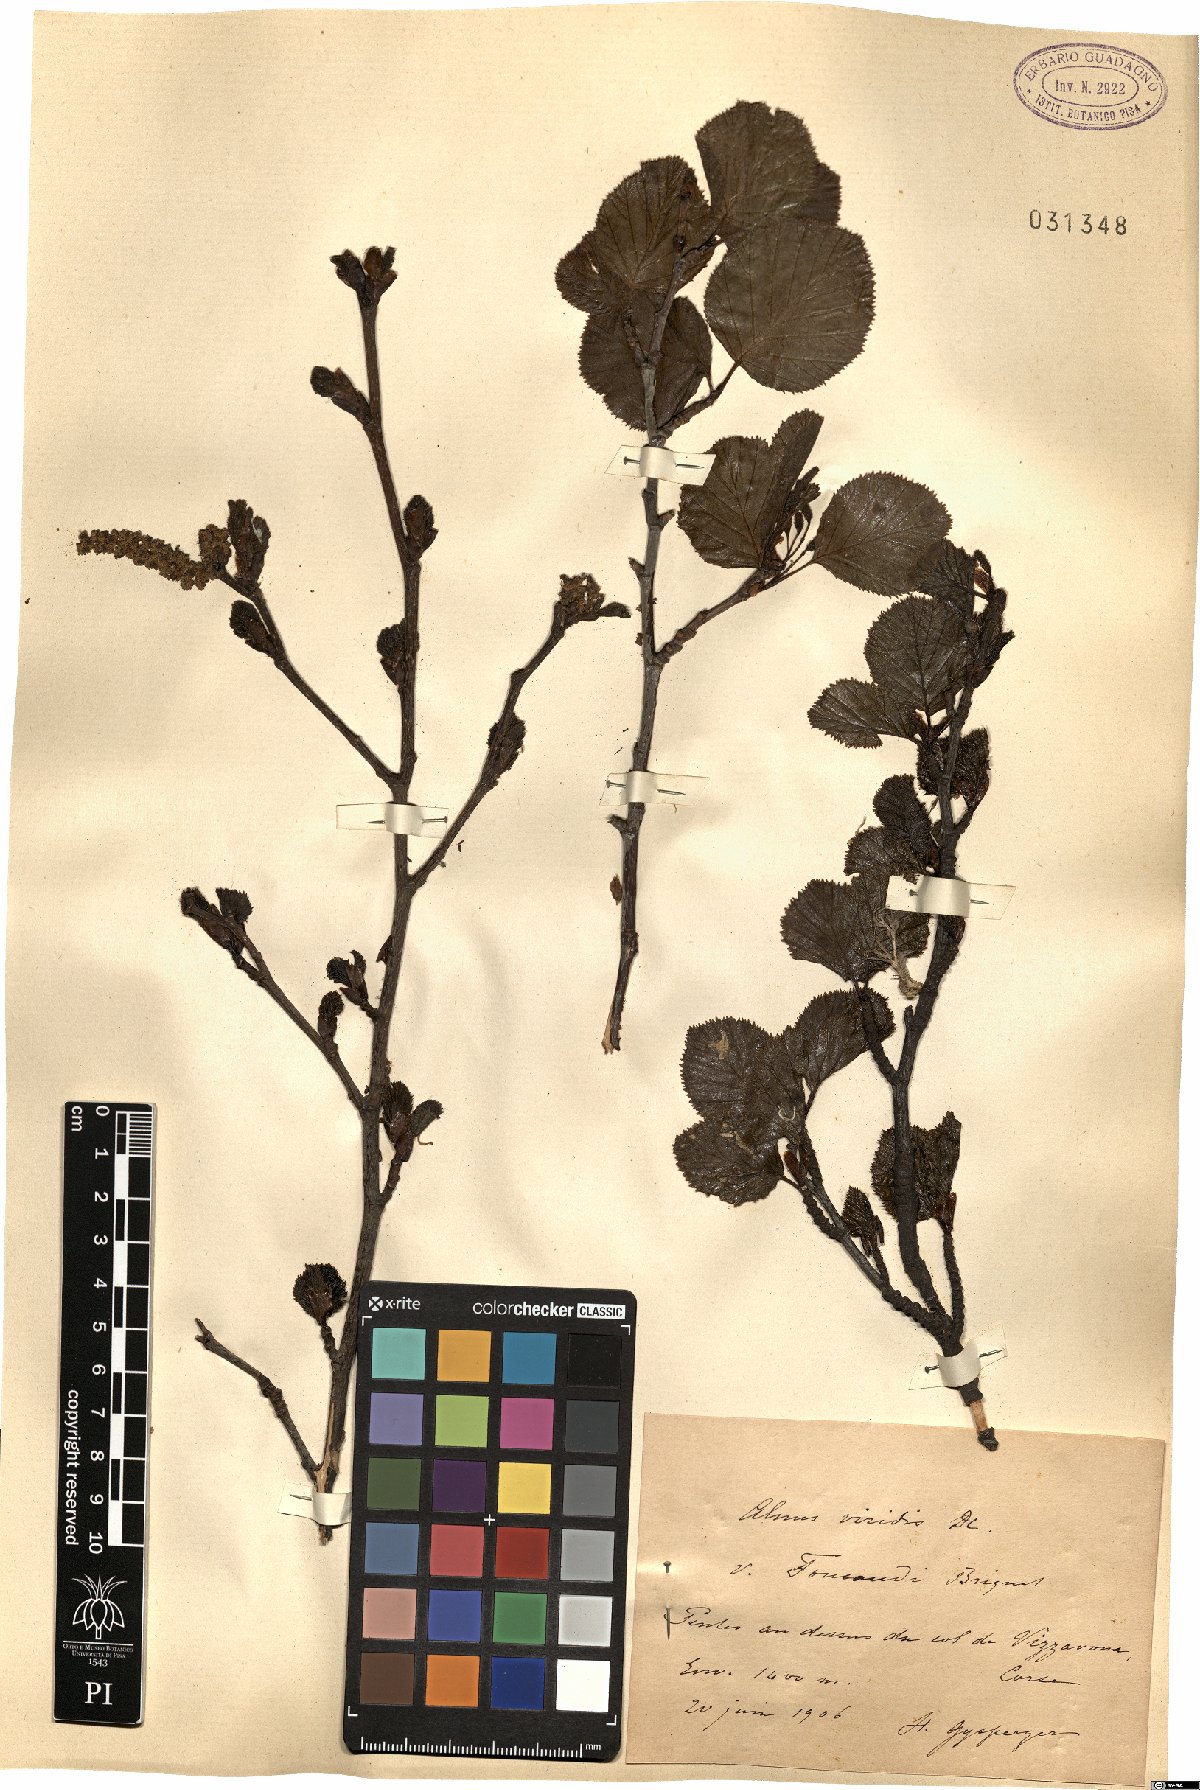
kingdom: Plantae
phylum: Tracheophyta
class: Magnoliopsida
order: Fagales
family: Betulaceae
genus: Alnus
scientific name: Alnus alnobetula
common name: Green alder
